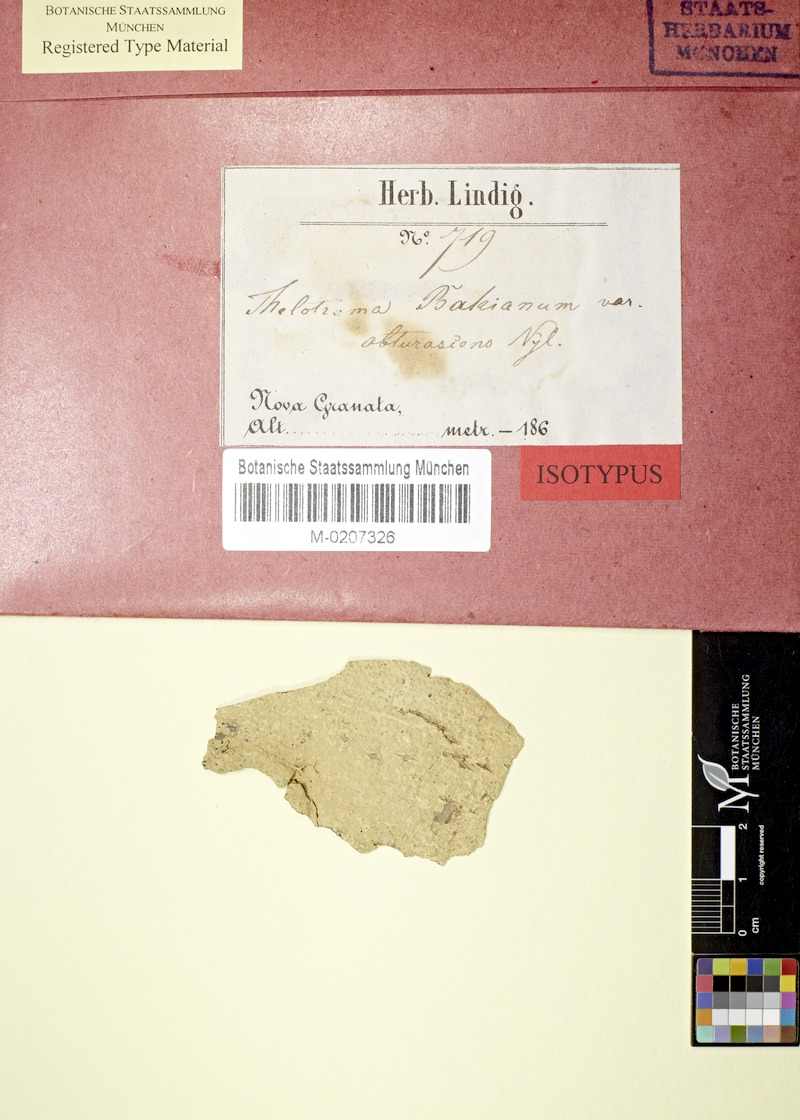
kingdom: Fungi
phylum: Ascomycota
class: Lecanoromycetes
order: Ostropales
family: Graphidaceae
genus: Ocellularia
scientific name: Ocellularia obturascens
